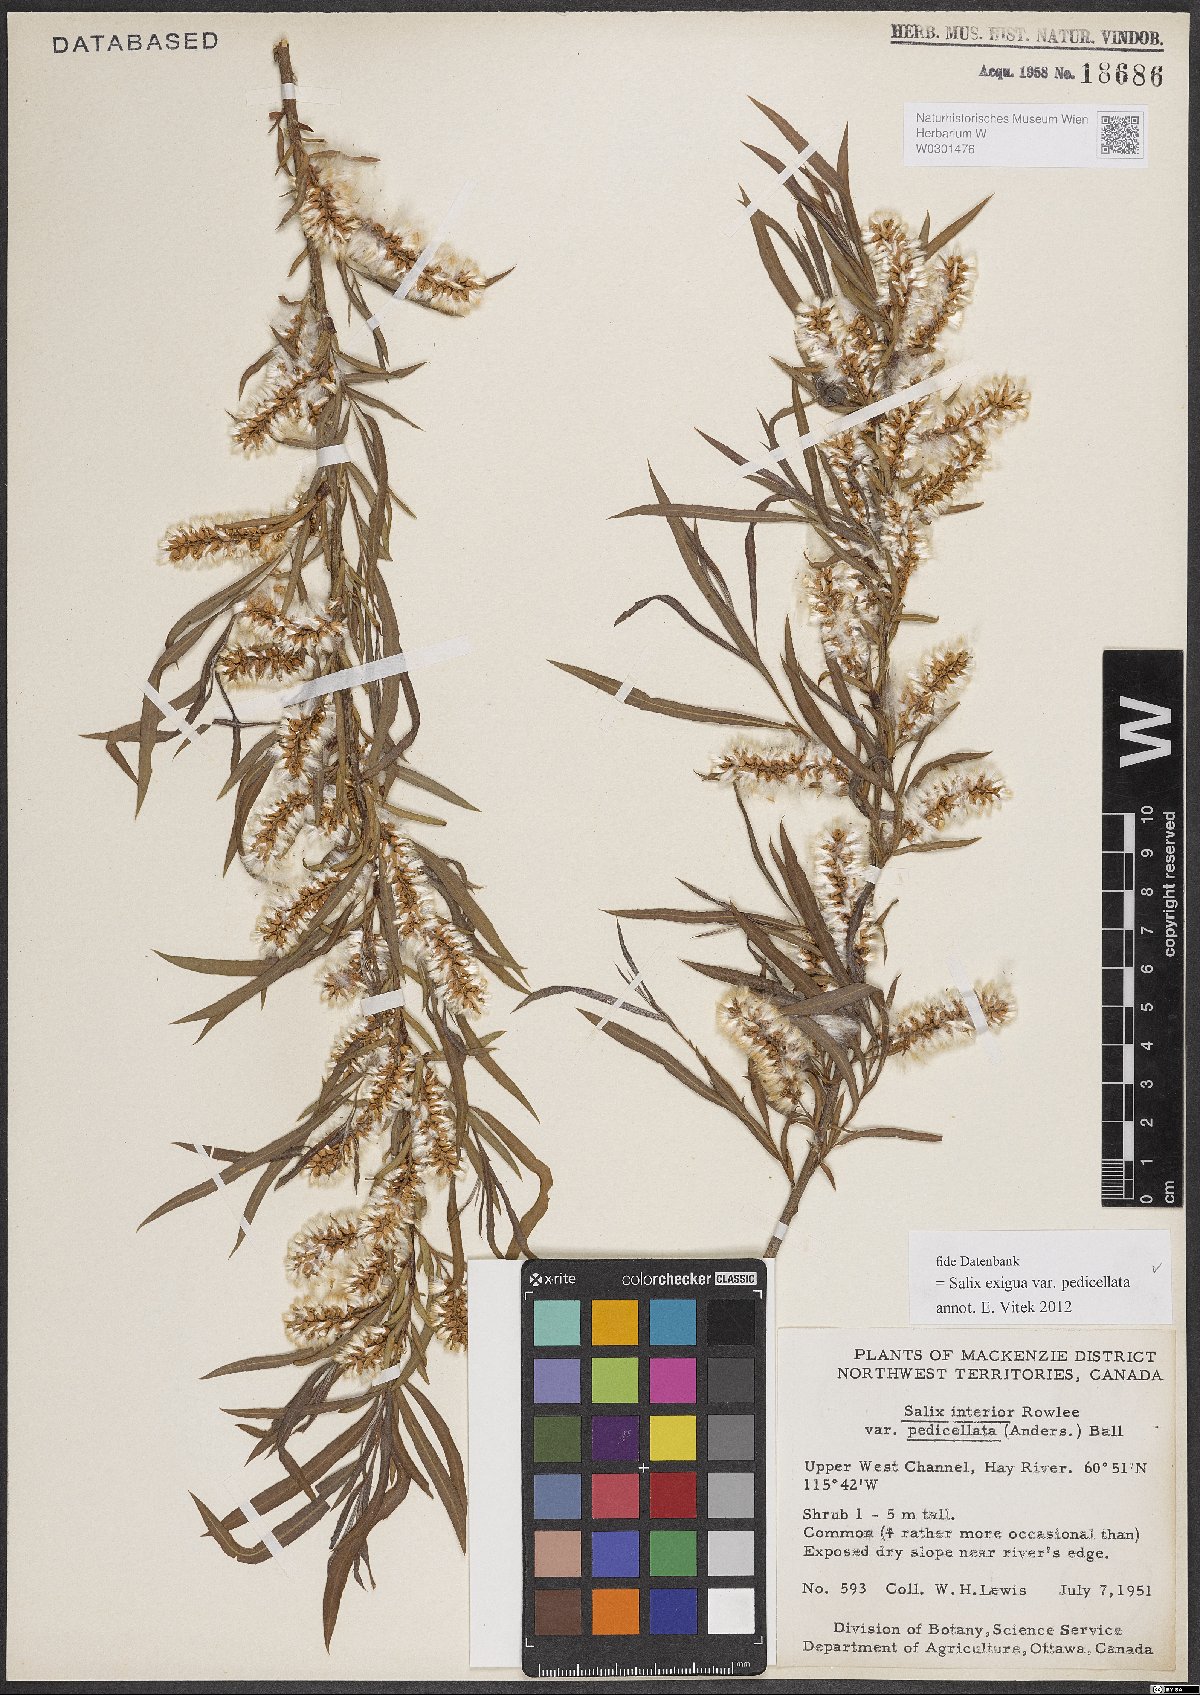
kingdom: Plantae
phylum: Tracheophyta
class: Magnoliopsida
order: Malpighiales
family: Salicaceae
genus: Salix
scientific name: Salix interior
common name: Sandbar willow
